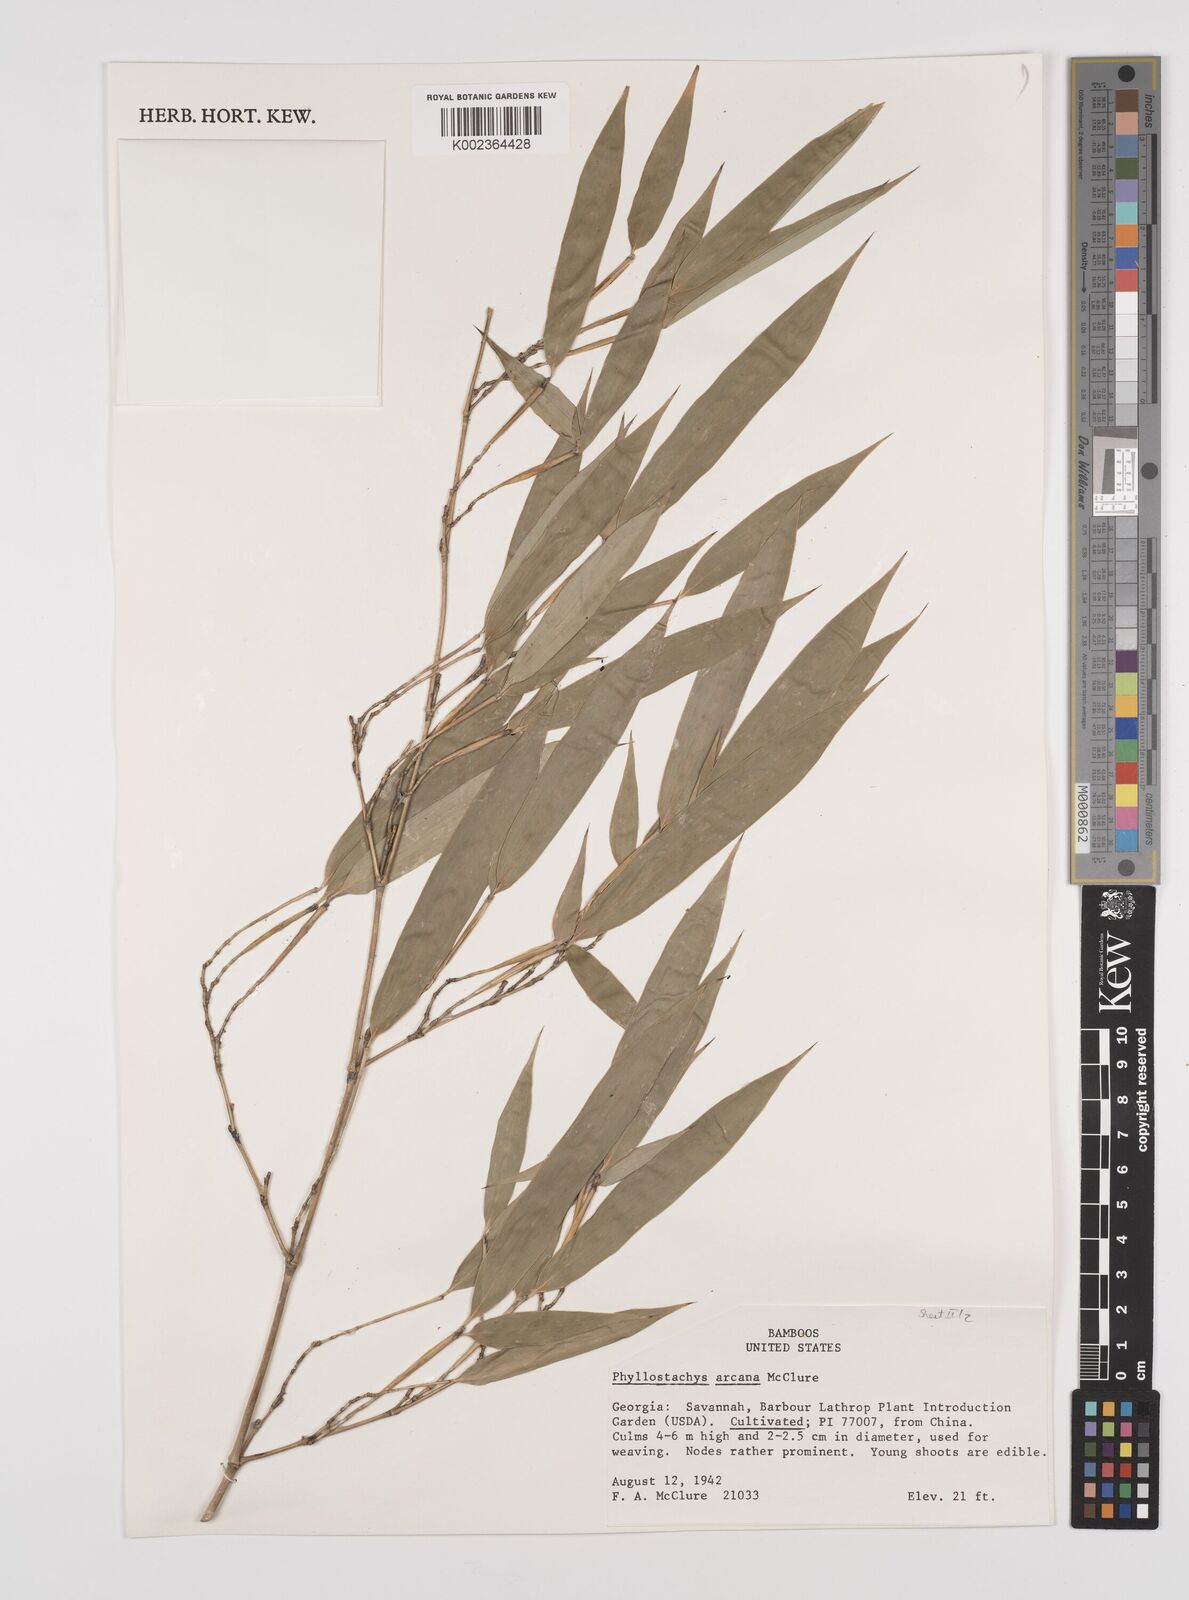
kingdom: Plantae
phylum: Tracheophyta
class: Liliopsida
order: Poales
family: Poaceae
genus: Phyllostachys
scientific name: Phyllostachys arcana
